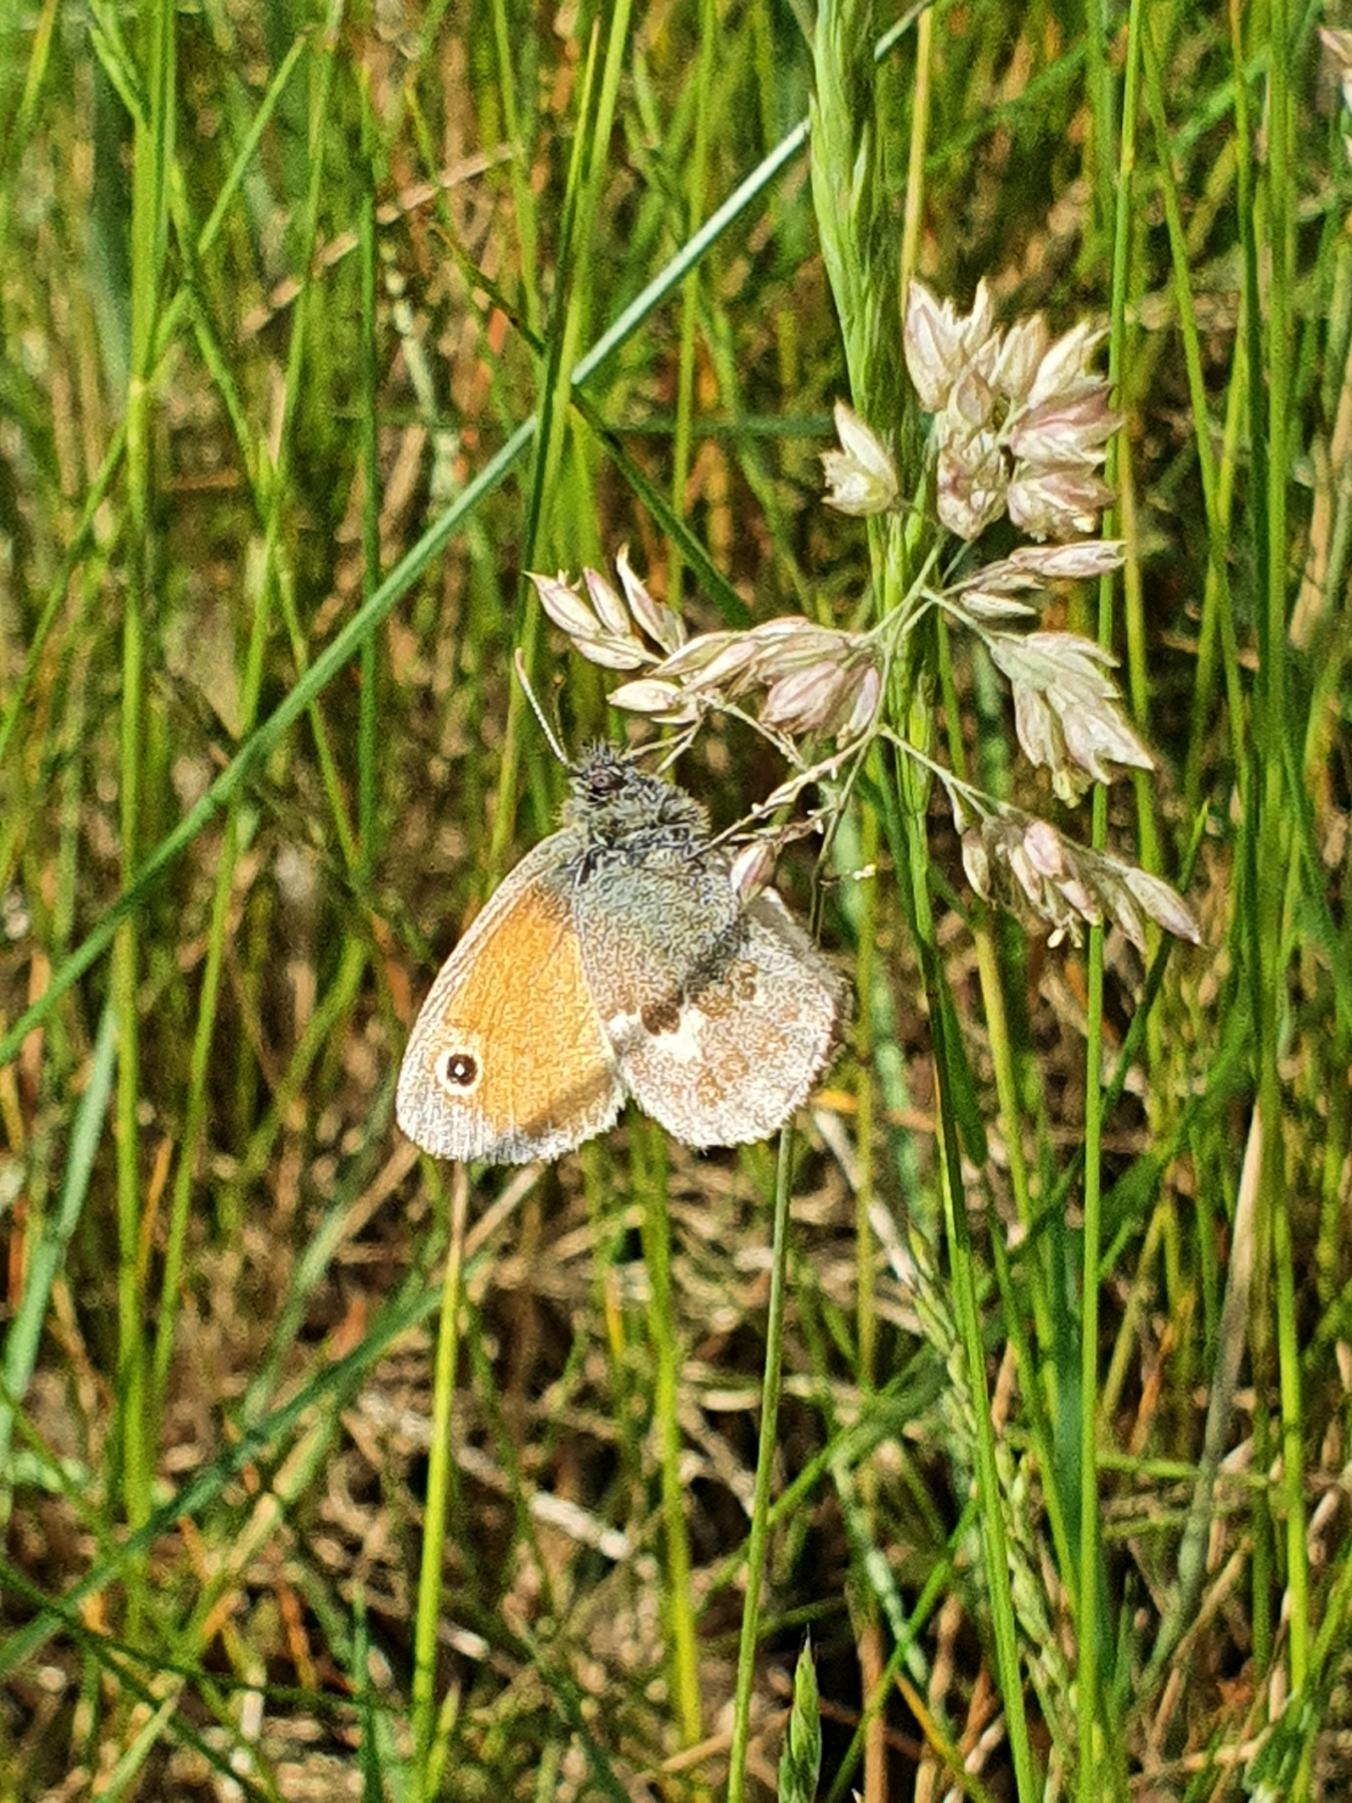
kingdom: Animalia
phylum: Arthropoda
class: Insecta
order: Lepidoptera
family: Nymphalidae
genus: Coenonympha
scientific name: Coenonympha pamphilus
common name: Okkergul randøje
